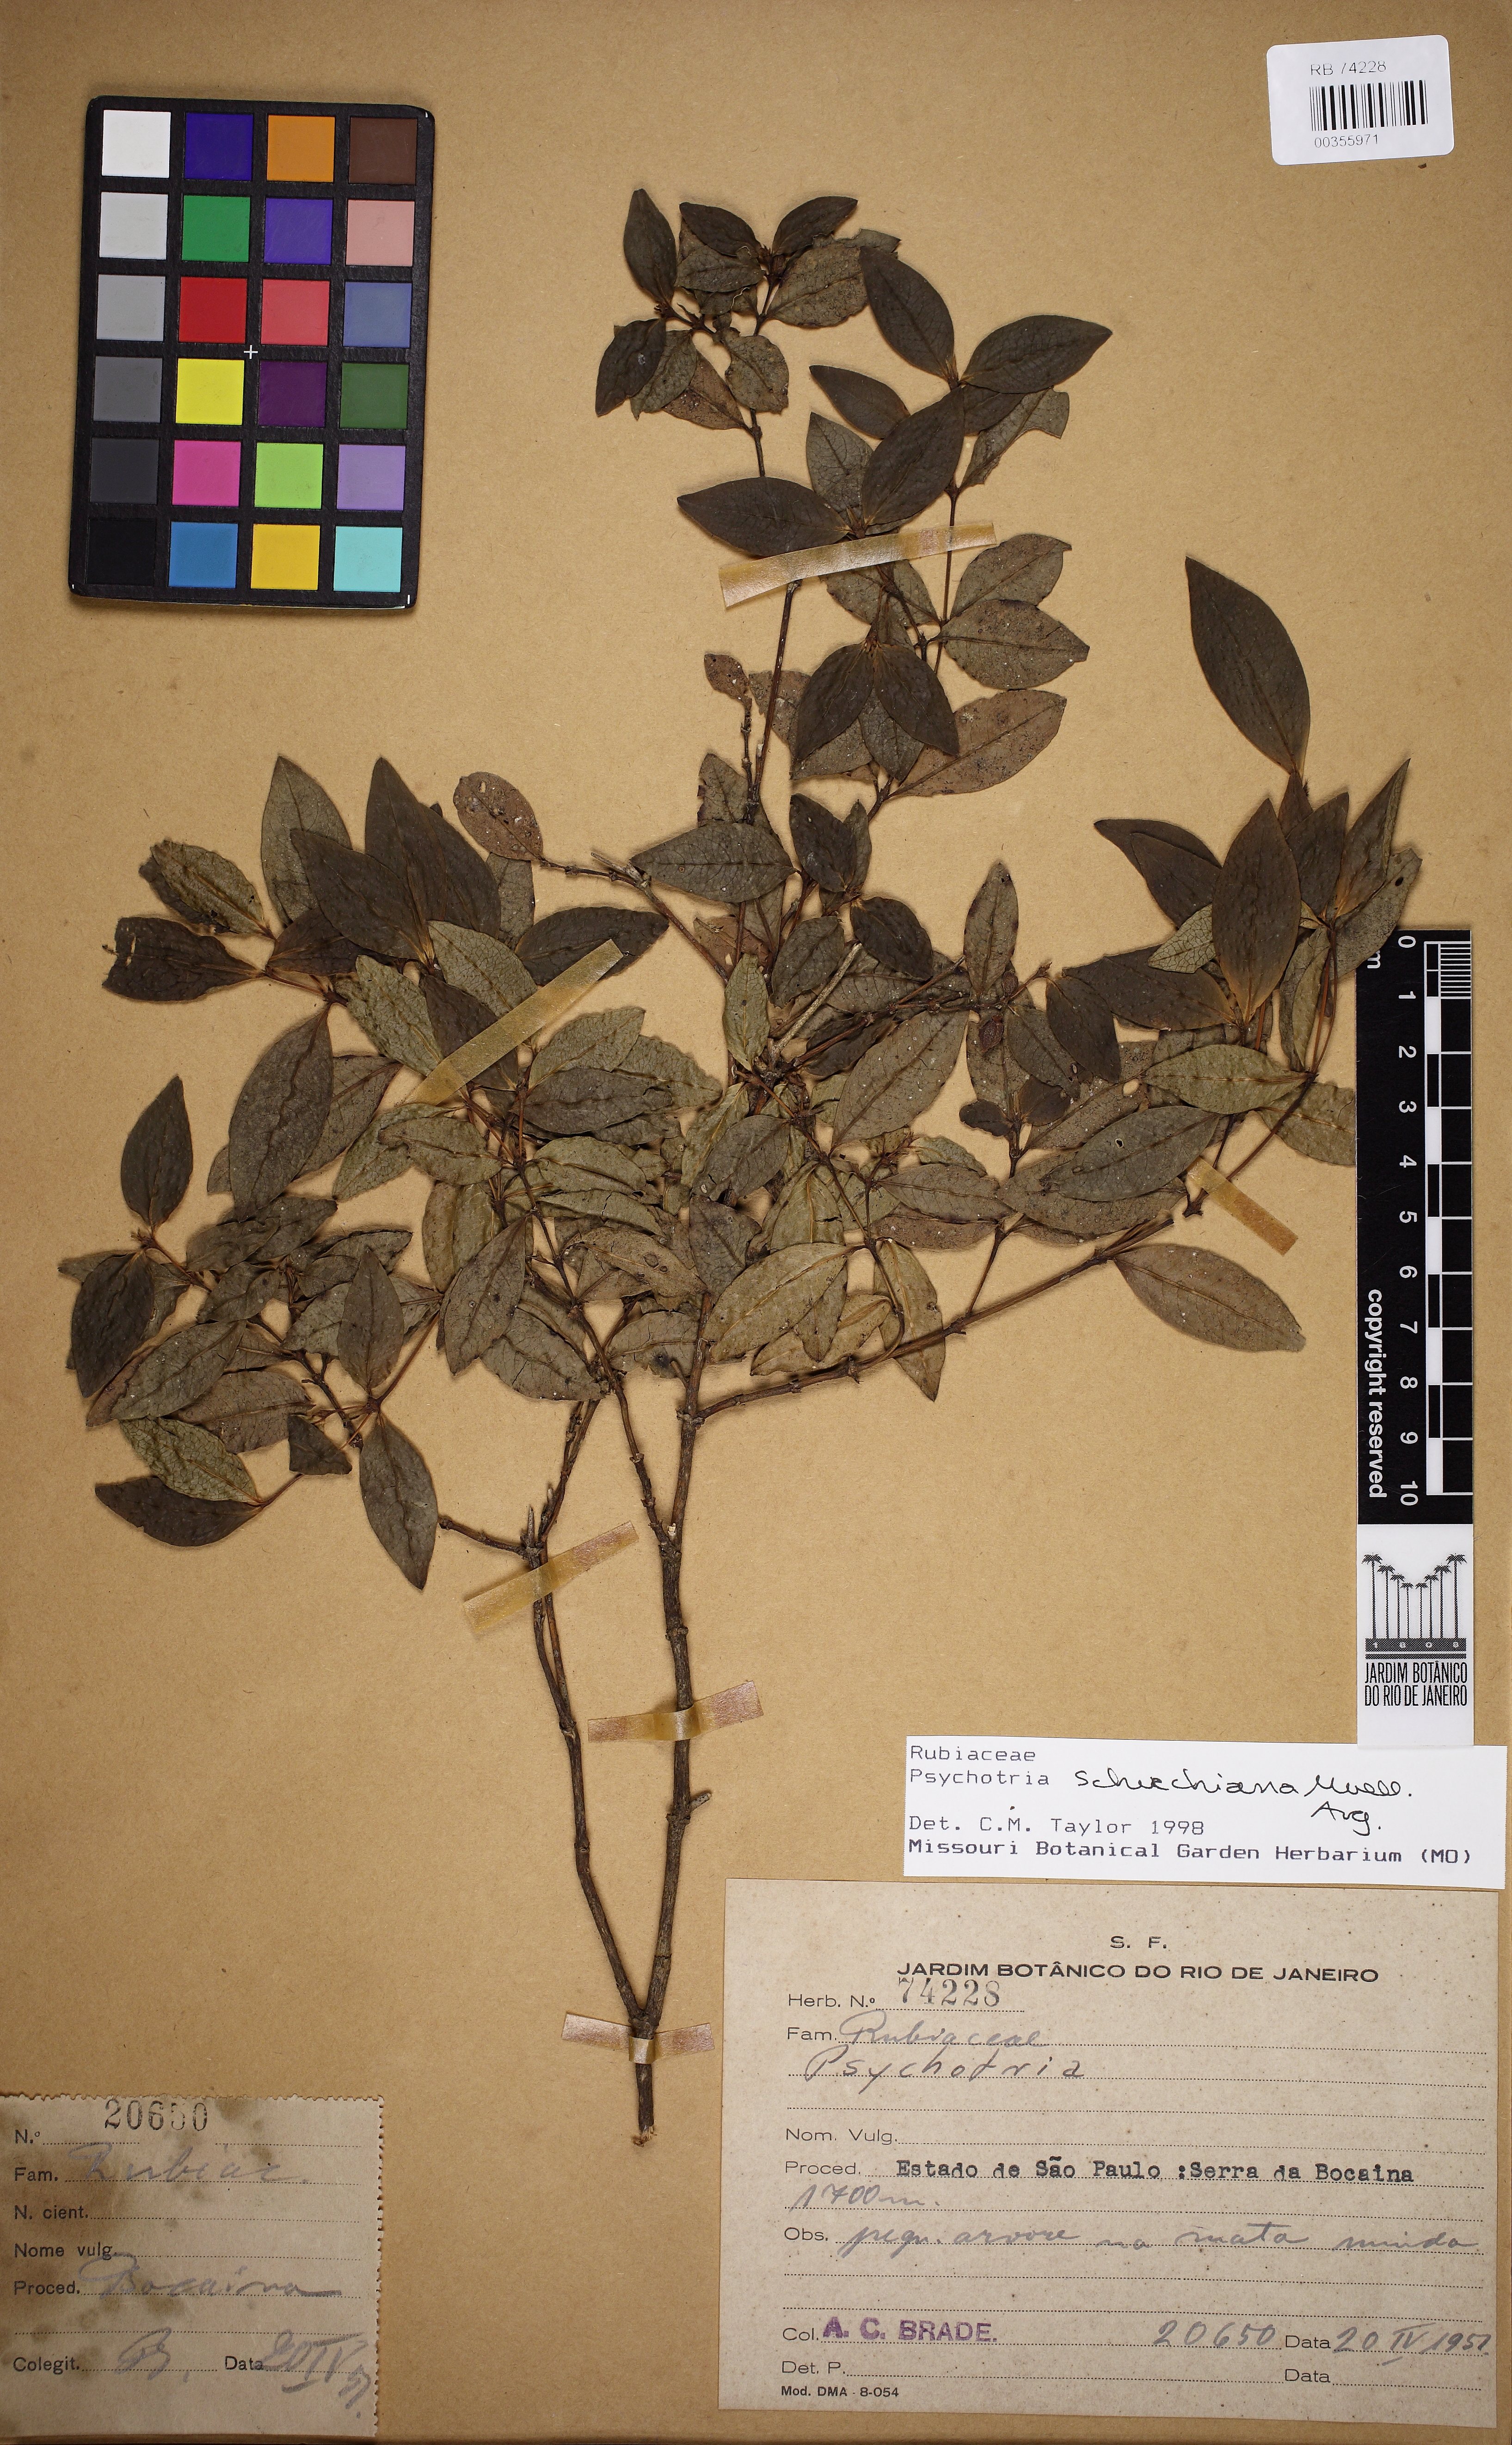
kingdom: Plantae
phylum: Tracheophyta
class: Magnoliopsida
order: Gentianales
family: Rubiaceae
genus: Psychotria
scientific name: Psychotria subtriflora
